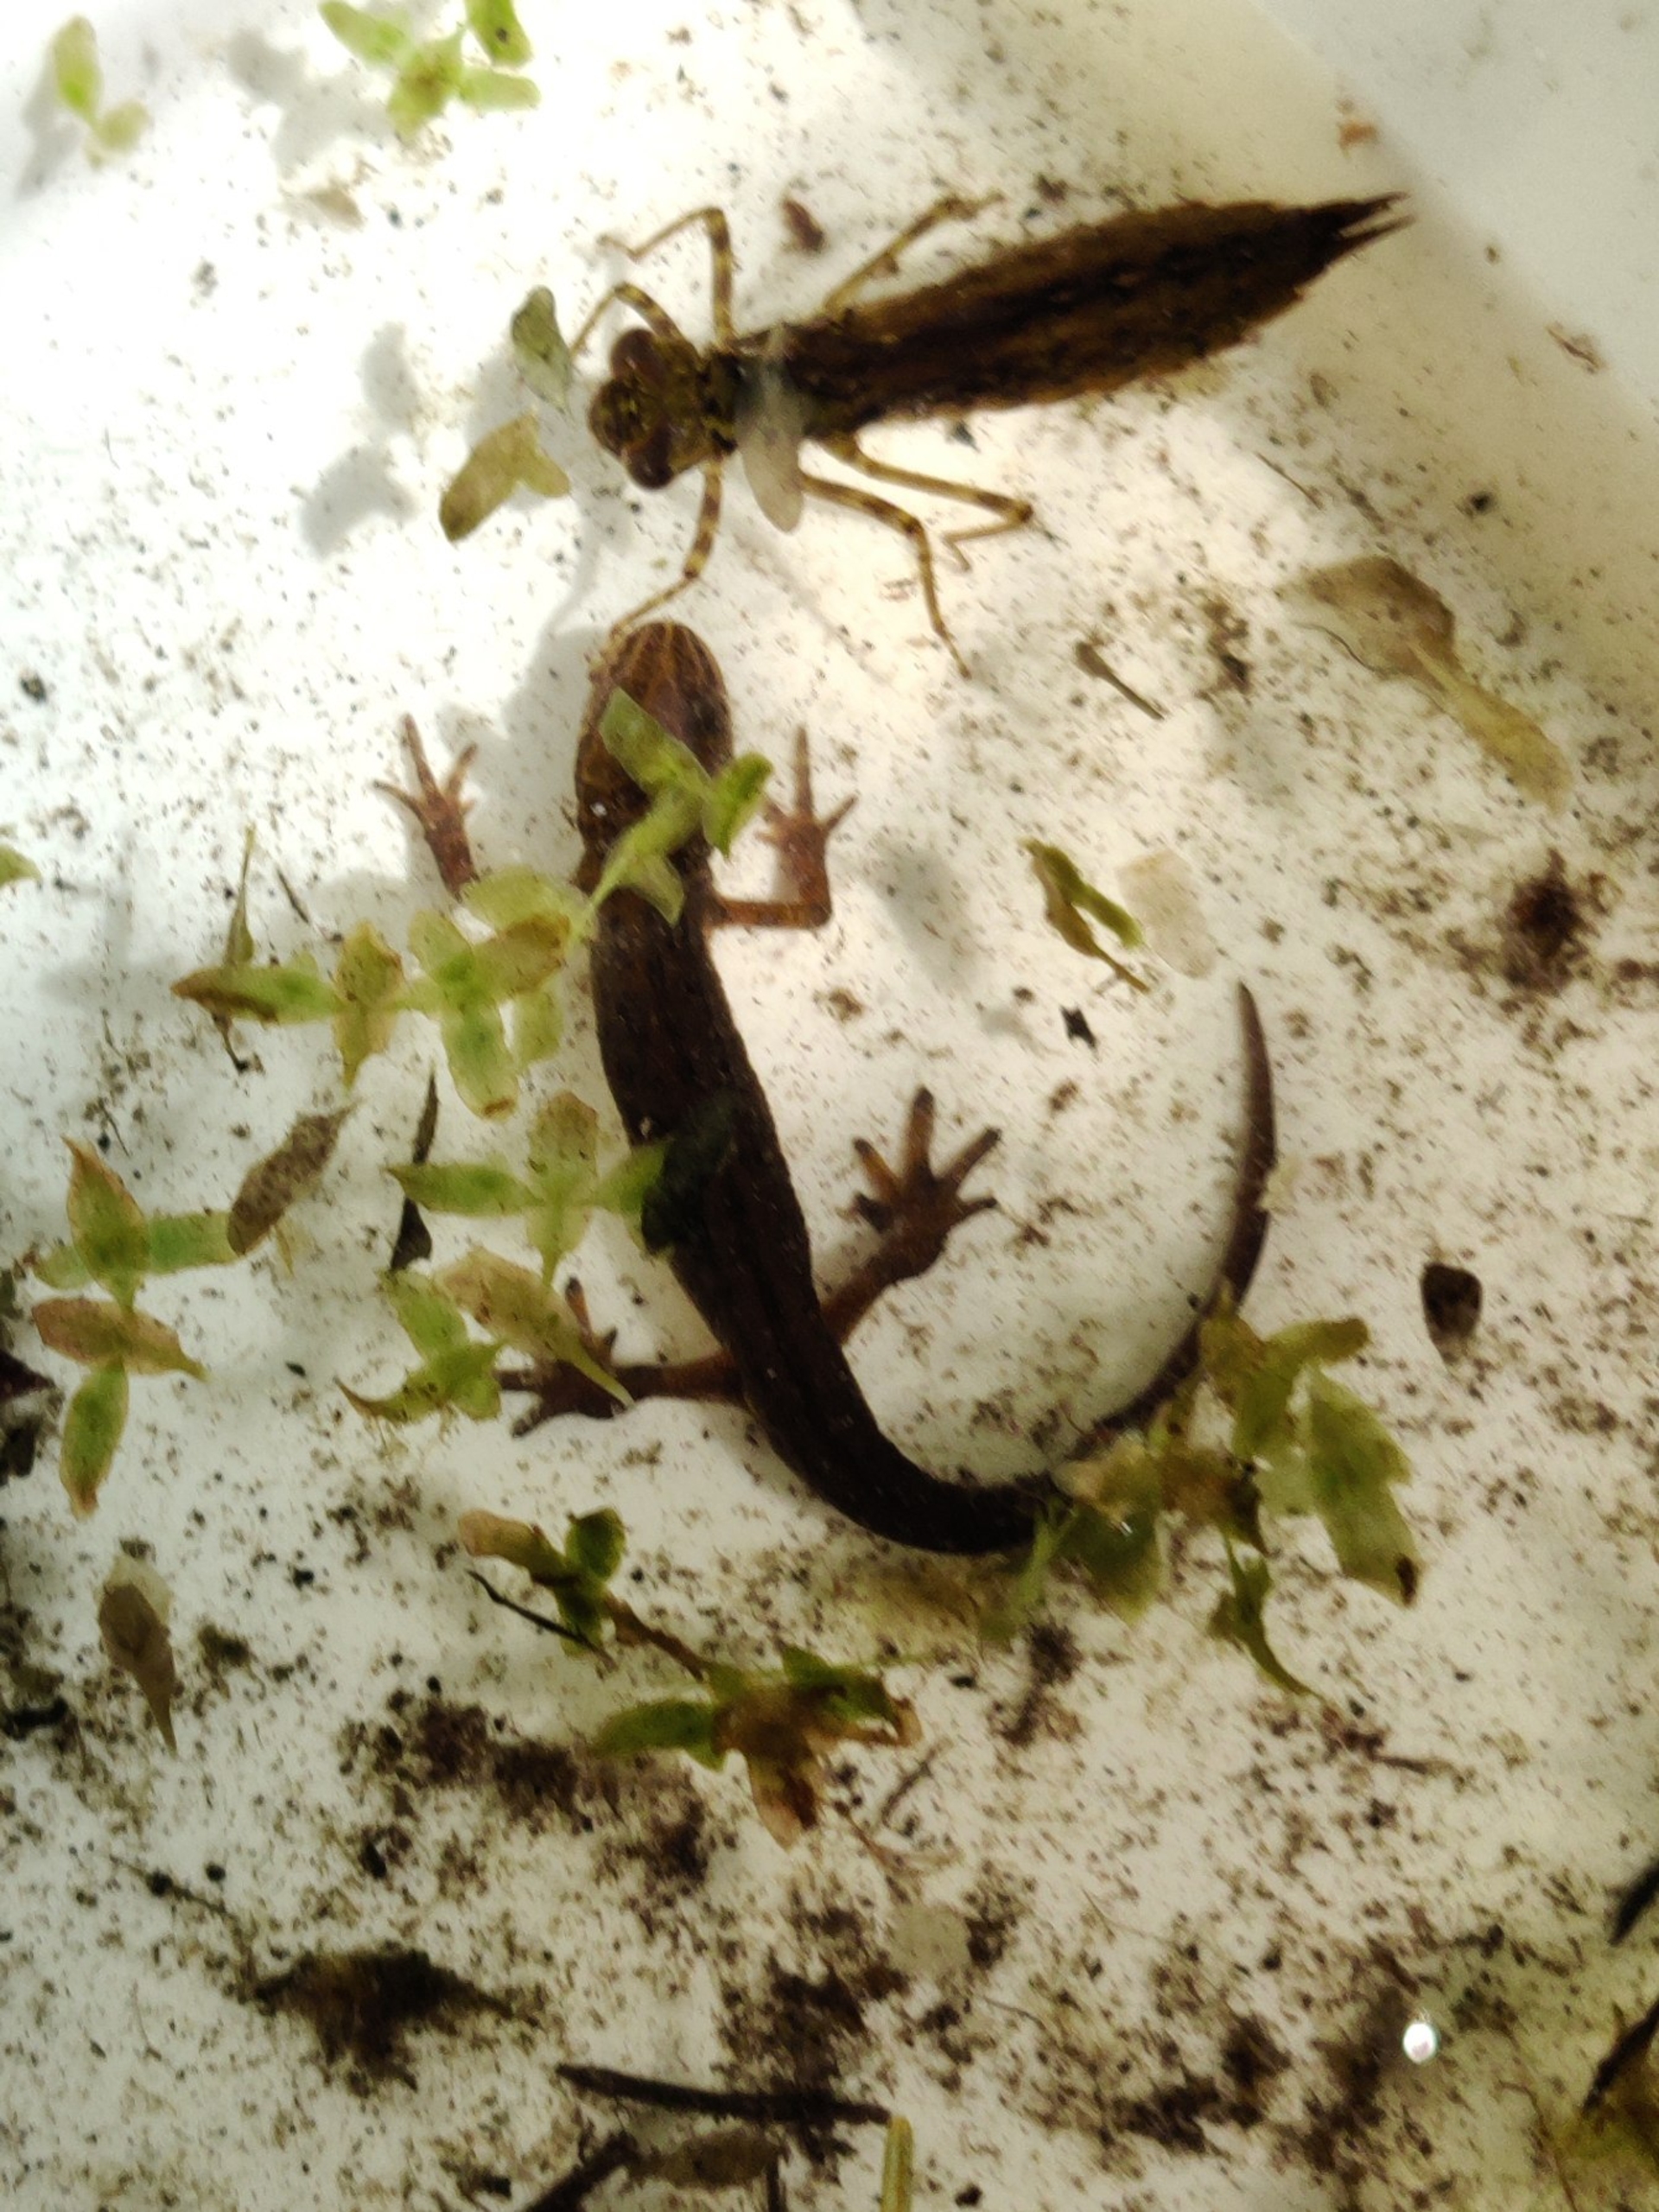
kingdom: Animalia
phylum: Chordata
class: Amphibia
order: Caudata
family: Salamandridae
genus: Lissotriton
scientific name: Lissotriton vulgaris
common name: Lille vandsalamander
